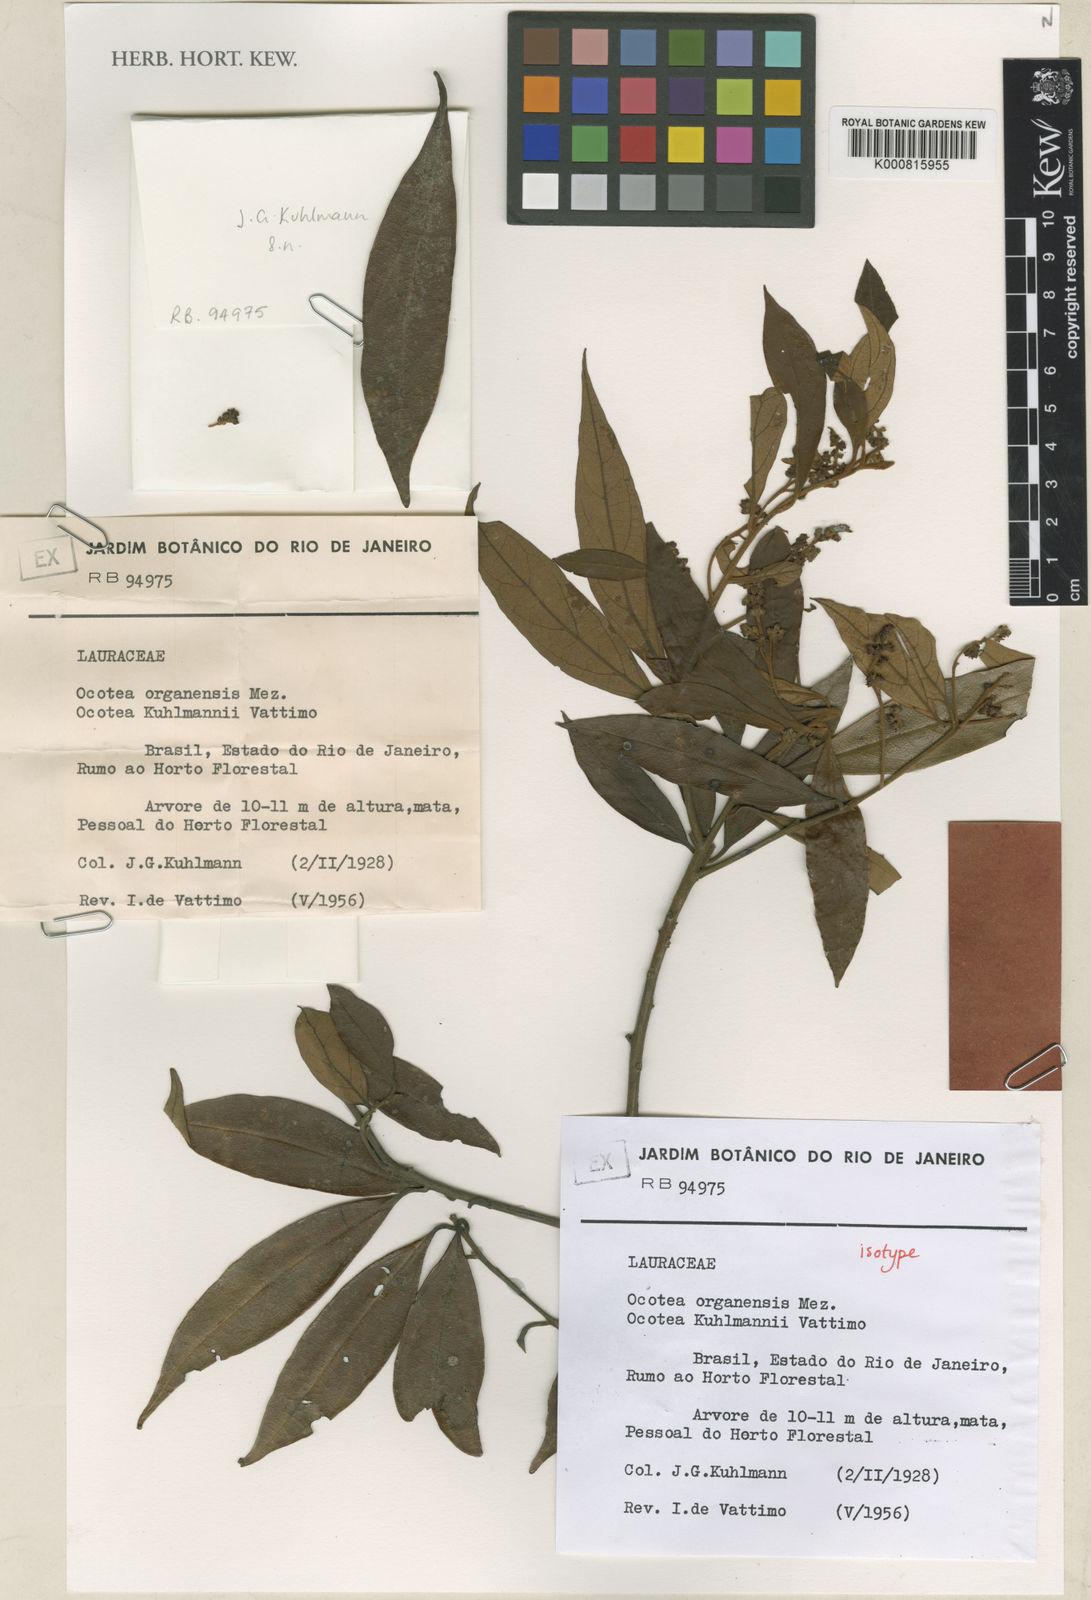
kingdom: Plantae
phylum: Tracheophyta
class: Magnoliopsida
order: Laurales
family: Lauraceae
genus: Ocotea
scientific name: Ocotea urbaniana
